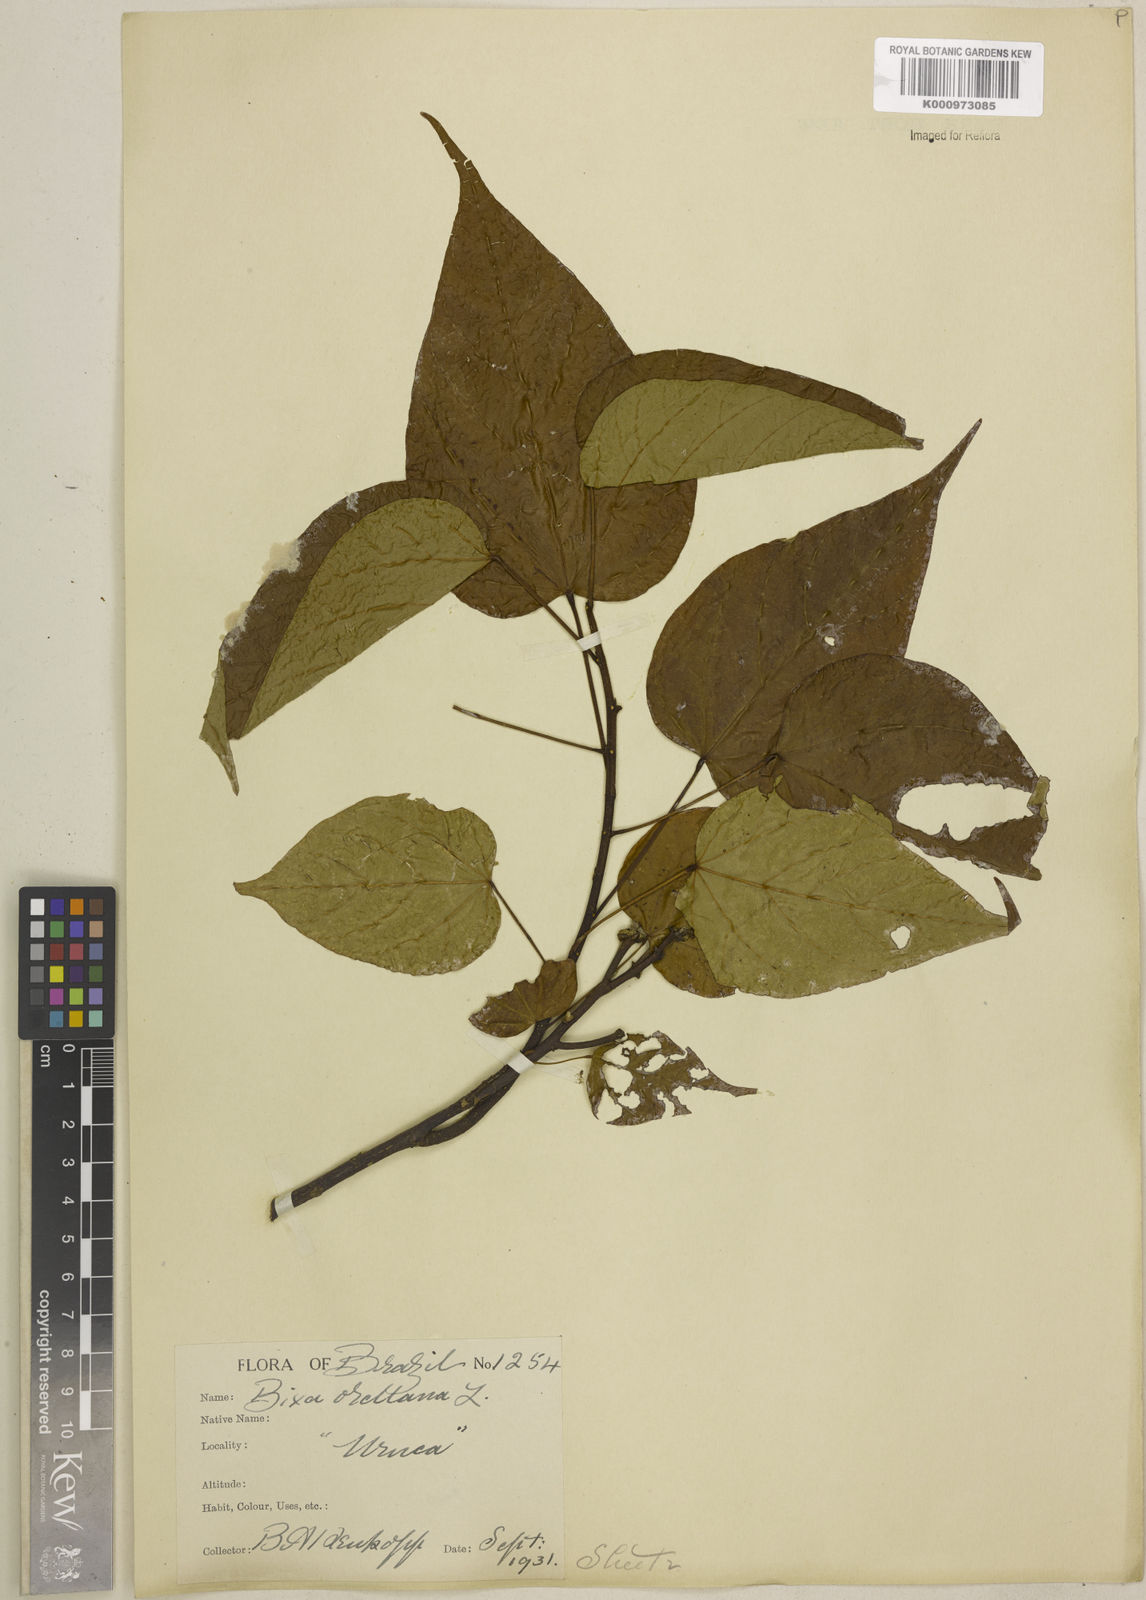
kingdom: Plantae
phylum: Tracheophyta
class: Magnoliopsida
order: Malvales
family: Bixaceae
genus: Bixa
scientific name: Bixa excelsa
